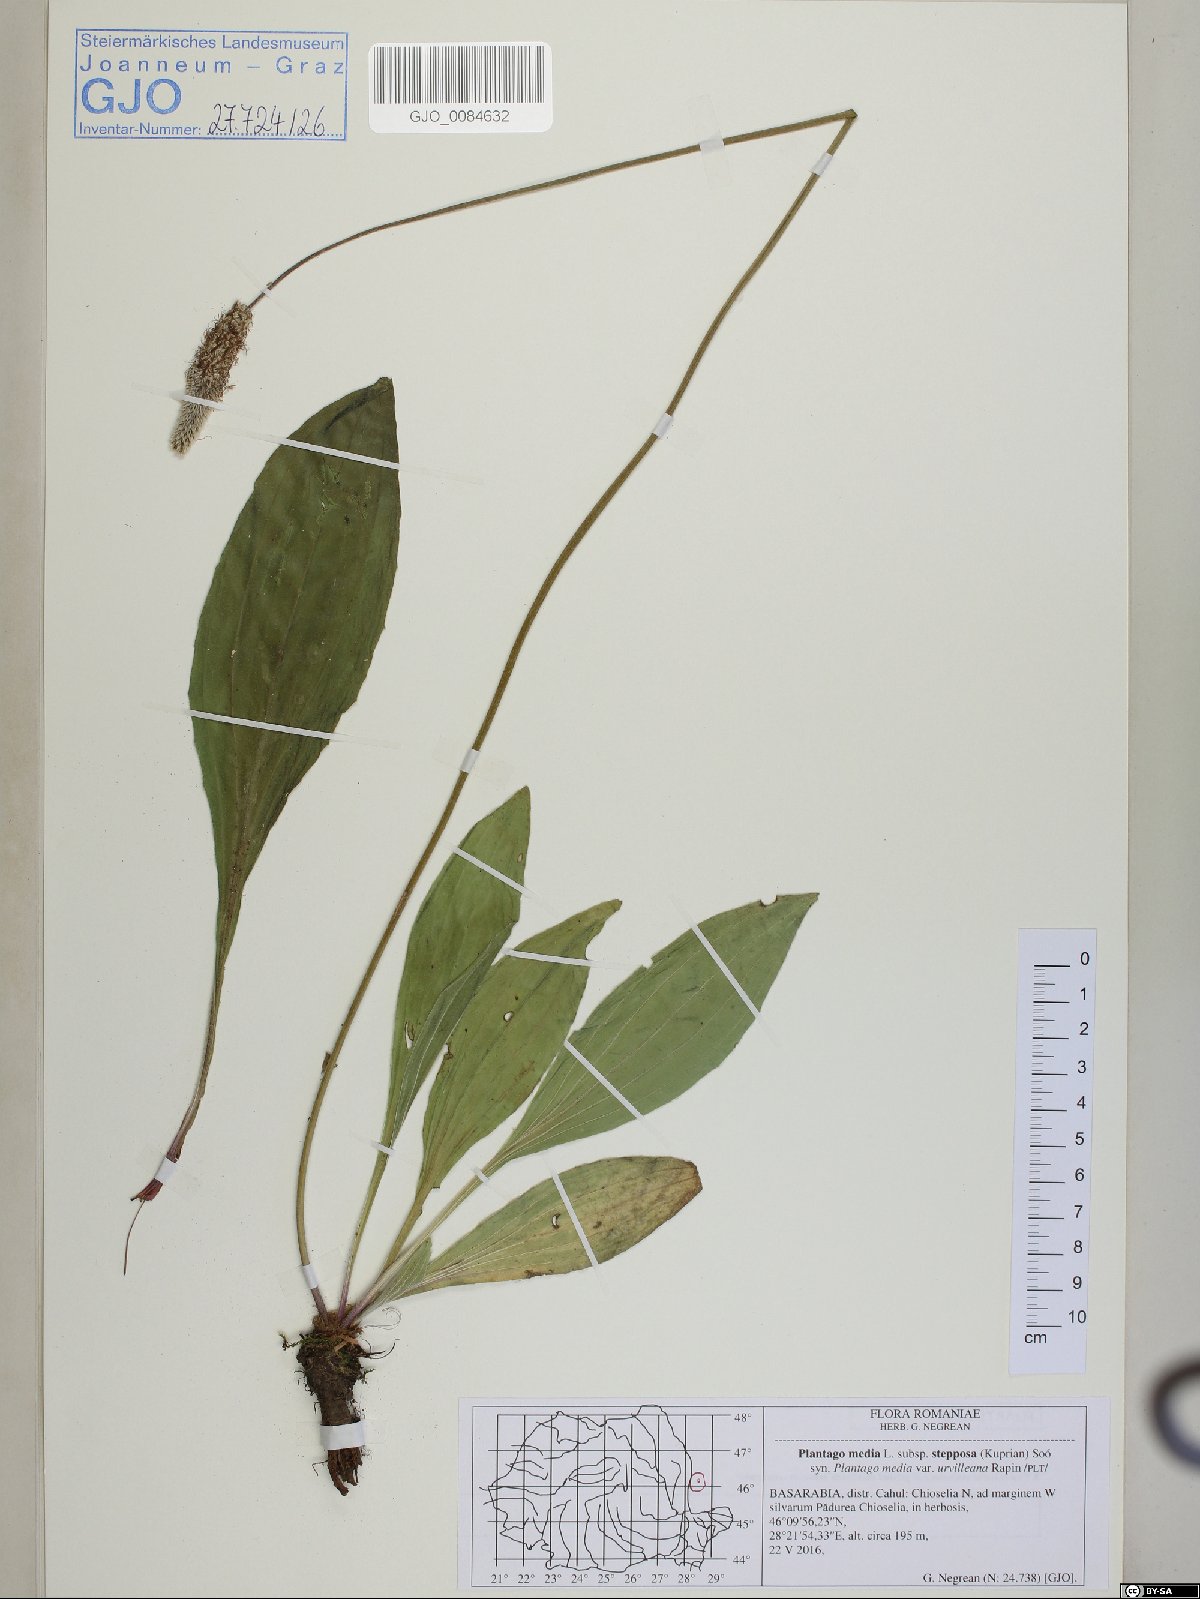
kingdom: Plantae
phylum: Tracheophyta
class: Magnoliopsida
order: Lamiales
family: Plantaginaceae
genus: Plantago
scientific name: Plantago media
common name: Hoary plantain
